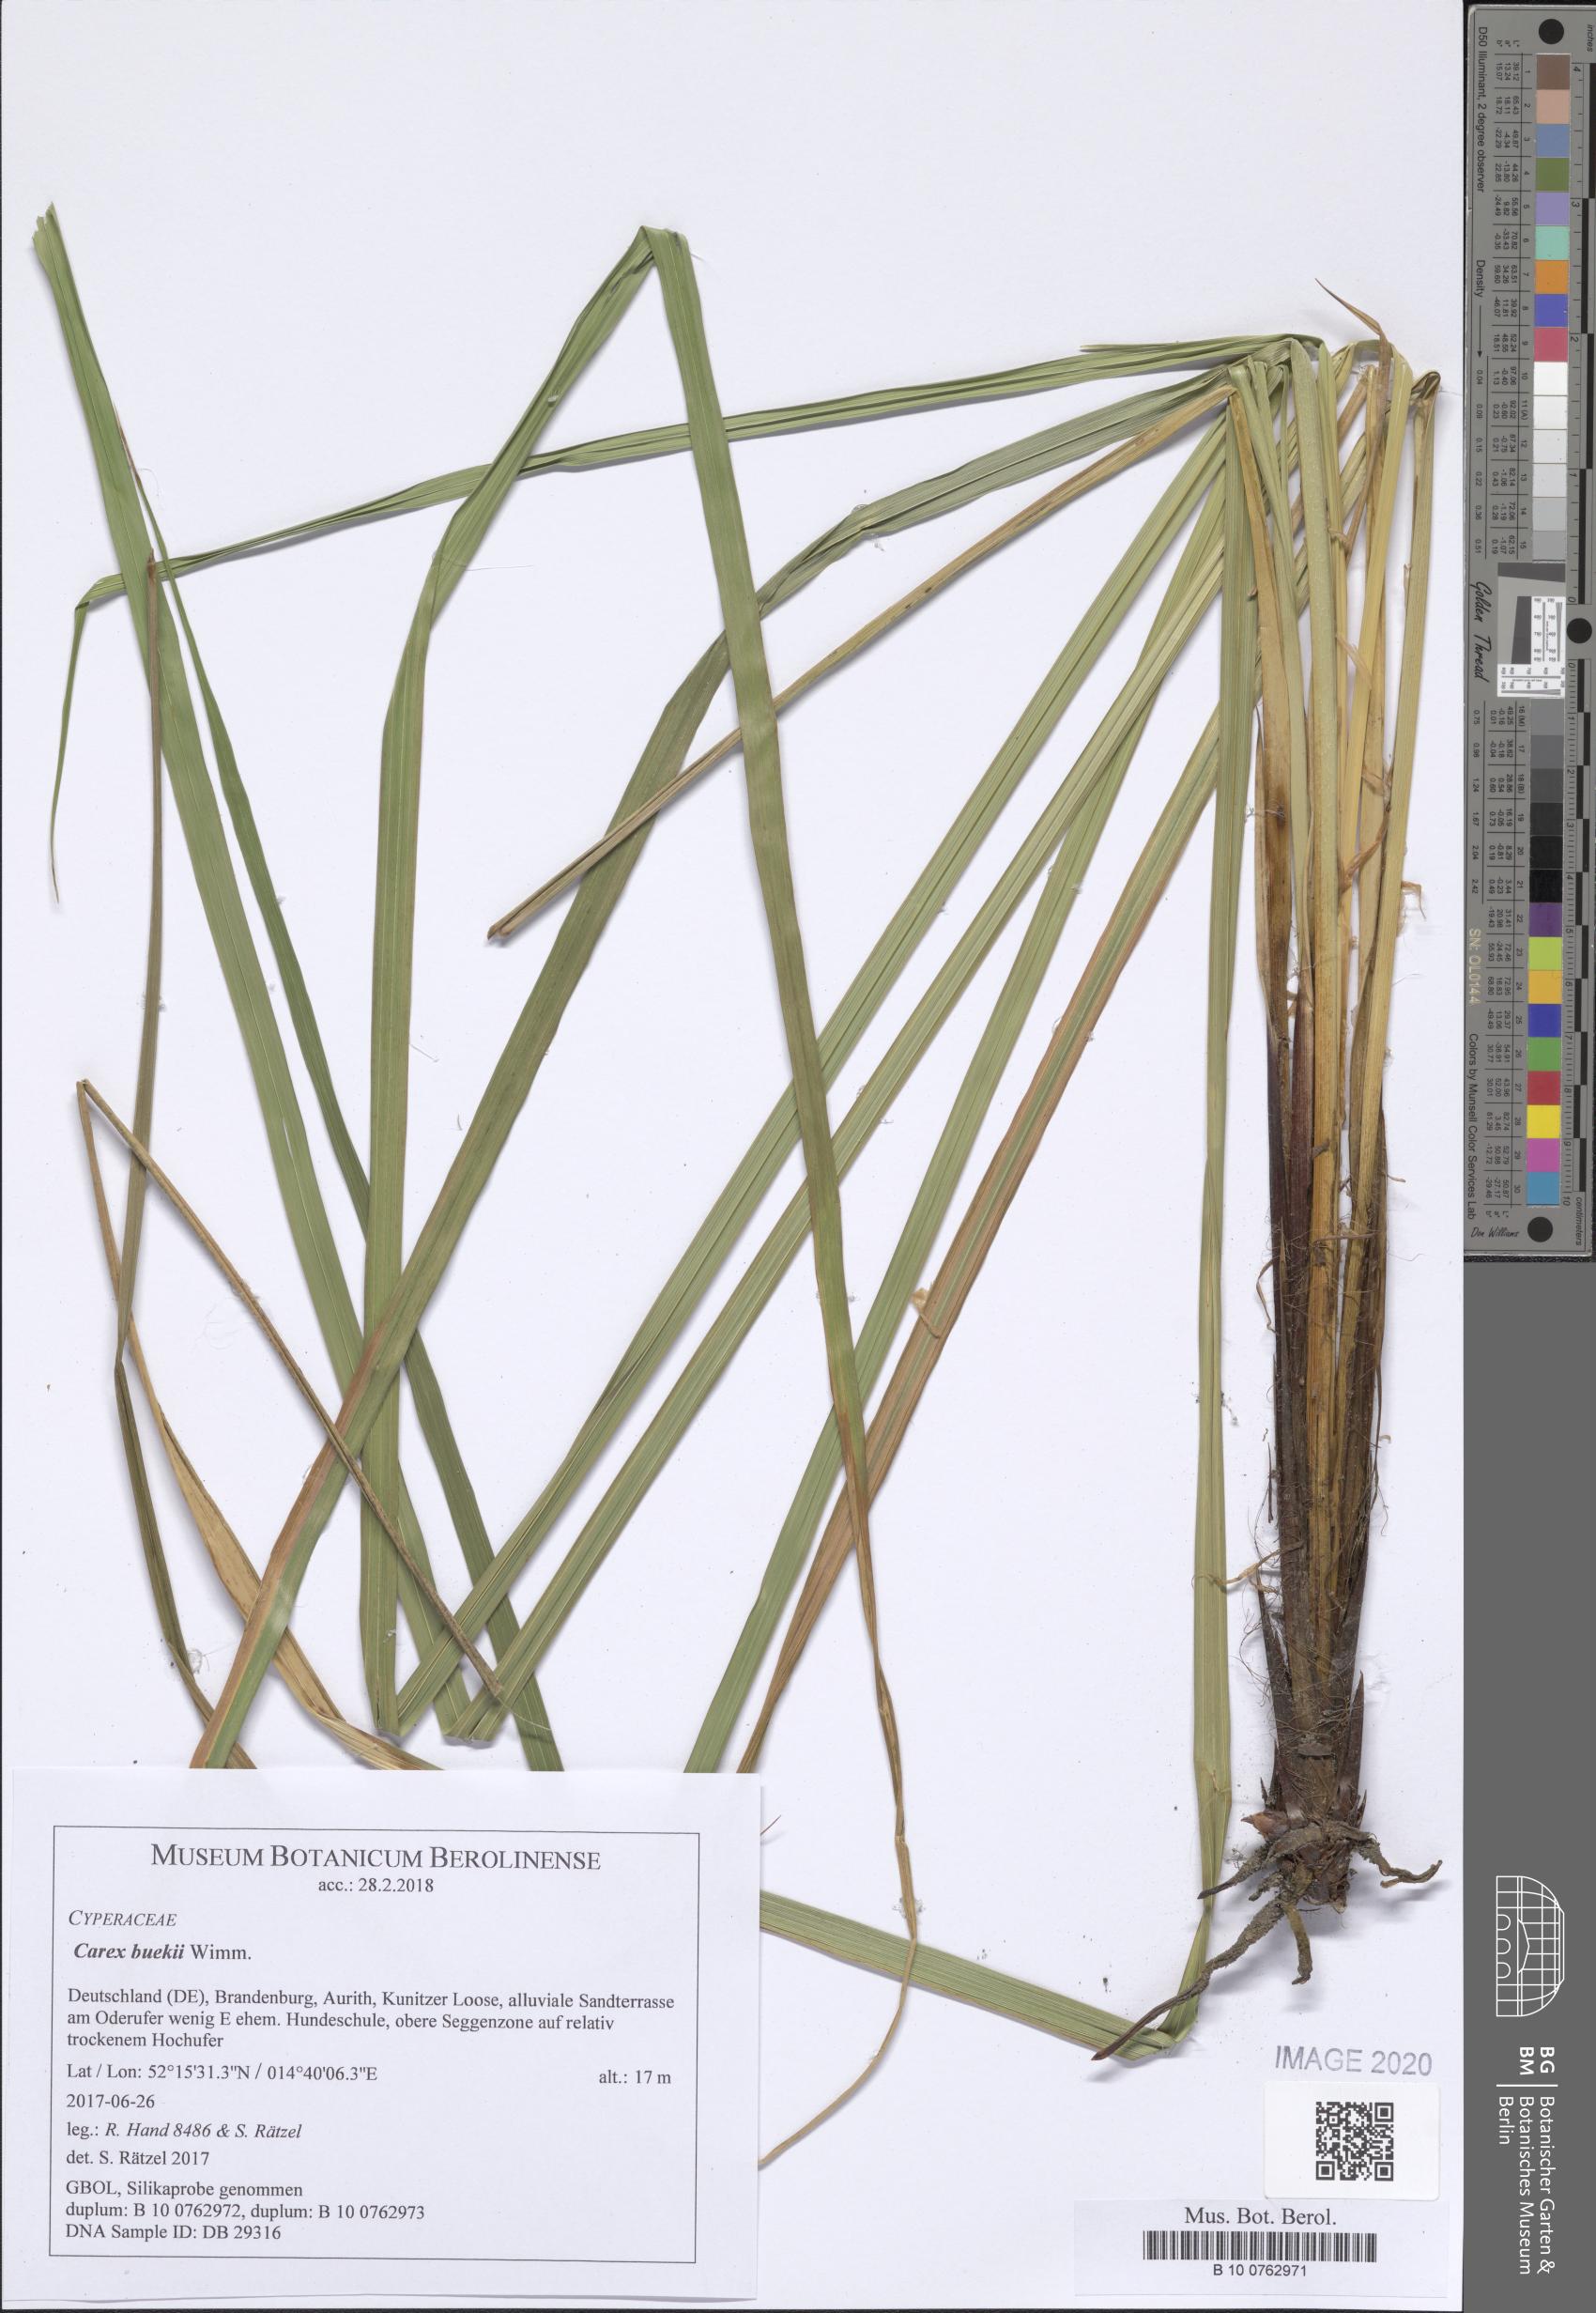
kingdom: Plantae
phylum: Tracheophyta
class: Liliopsida
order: Poales
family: Cyperaceae
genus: Carex
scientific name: Carex buekii
